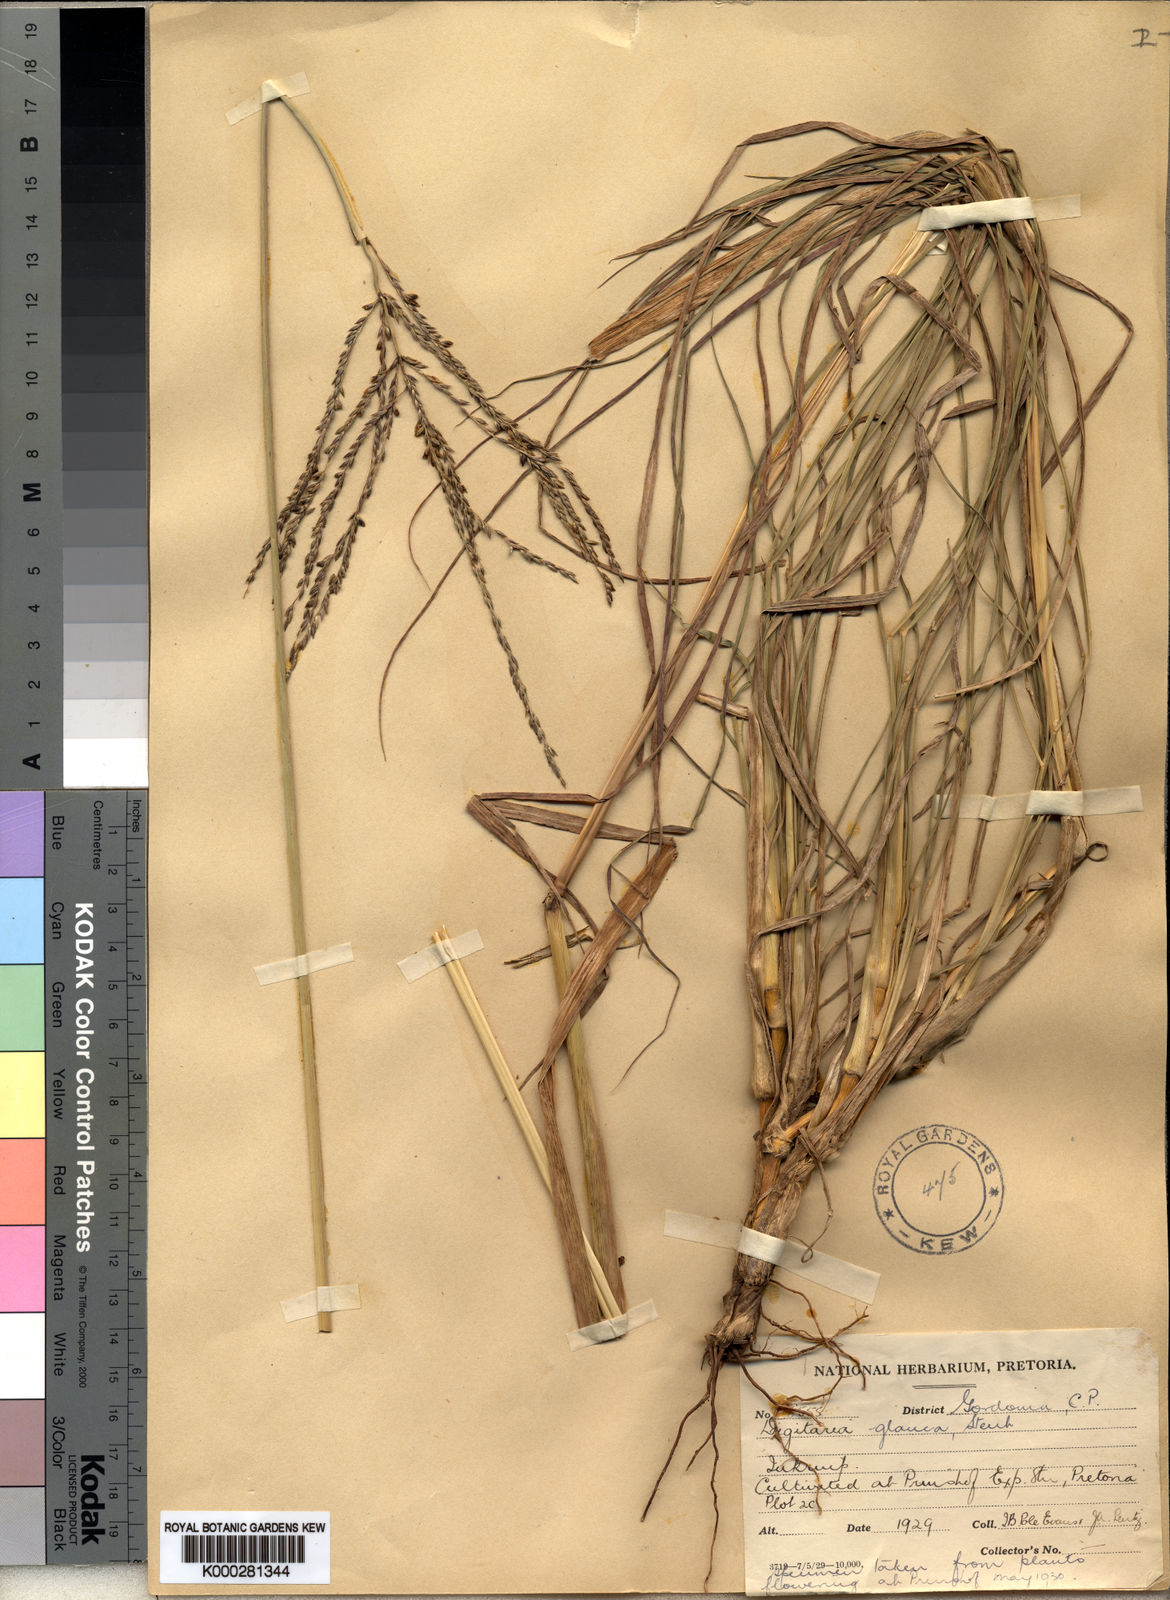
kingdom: Plantae
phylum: Tracheophyta
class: Liliopsida
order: Poales
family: Poaceae
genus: Digitaria
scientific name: Digitaria eriantha
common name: Digitgrass
